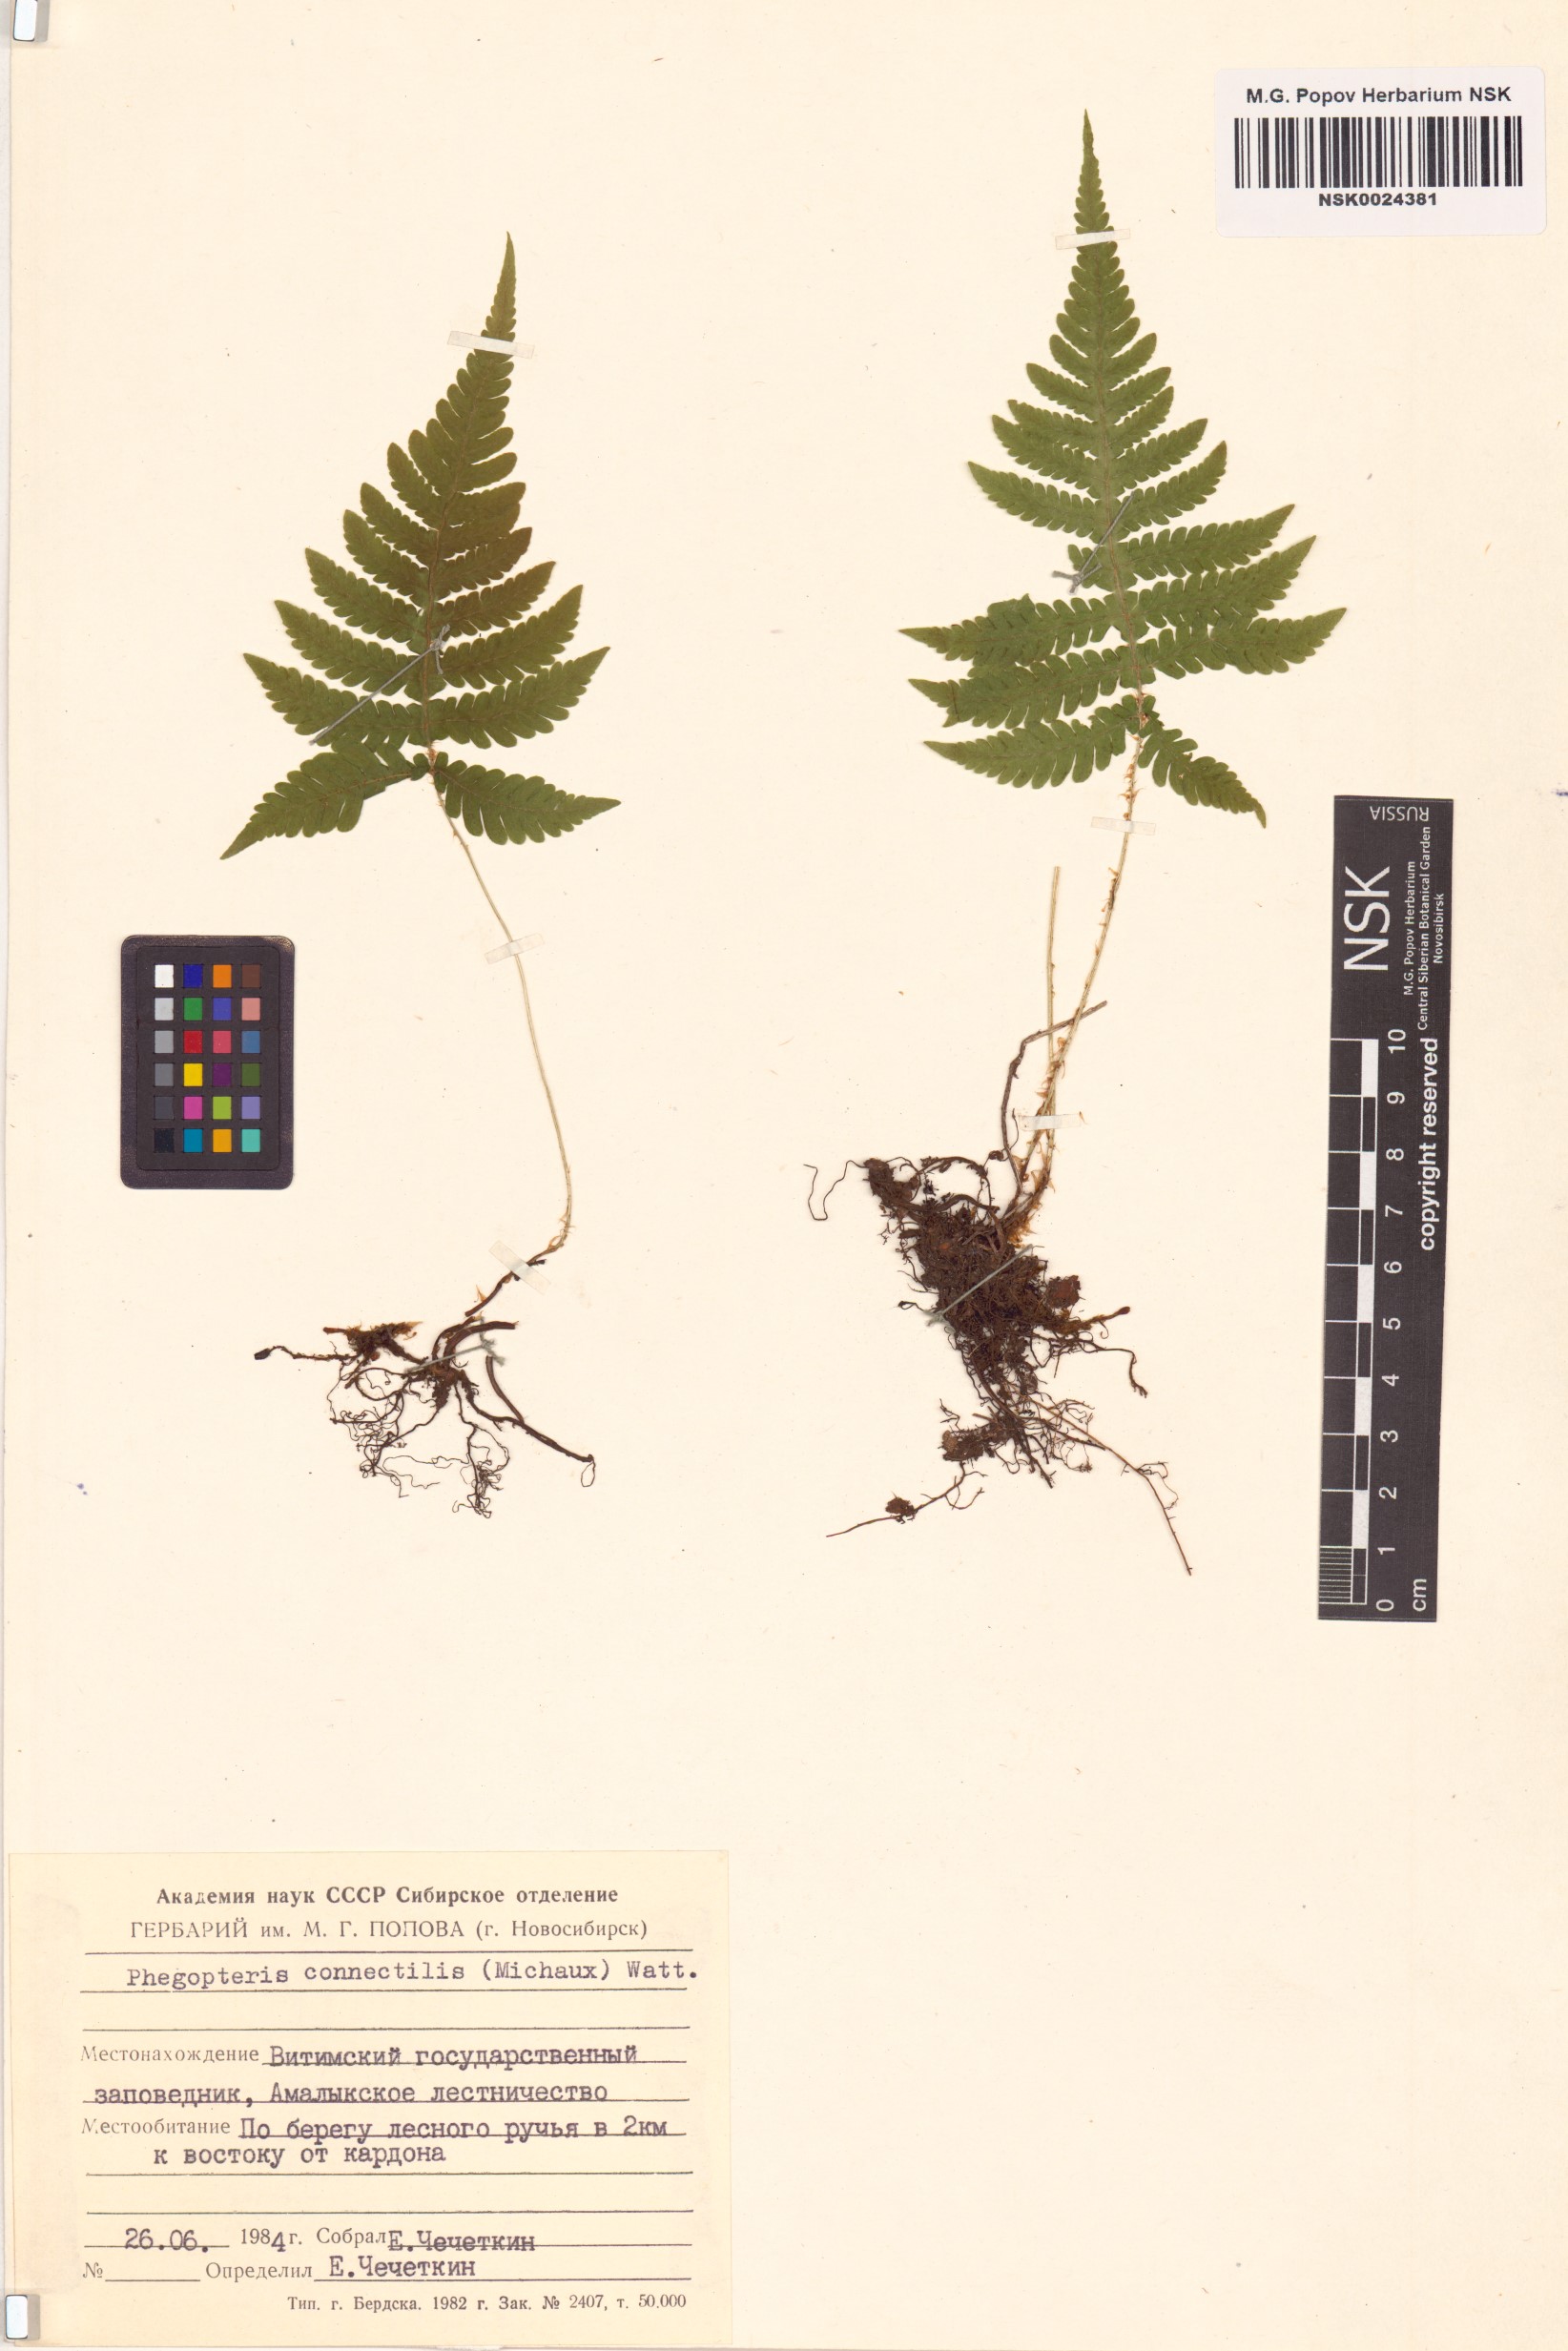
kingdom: Plantae
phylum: Tracheophyta
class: Polypodiopsida
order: Polypodiales
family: Thelypteridaceae
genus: Phegopteris
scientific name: Phegopteris connectilis
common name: Beech fern
